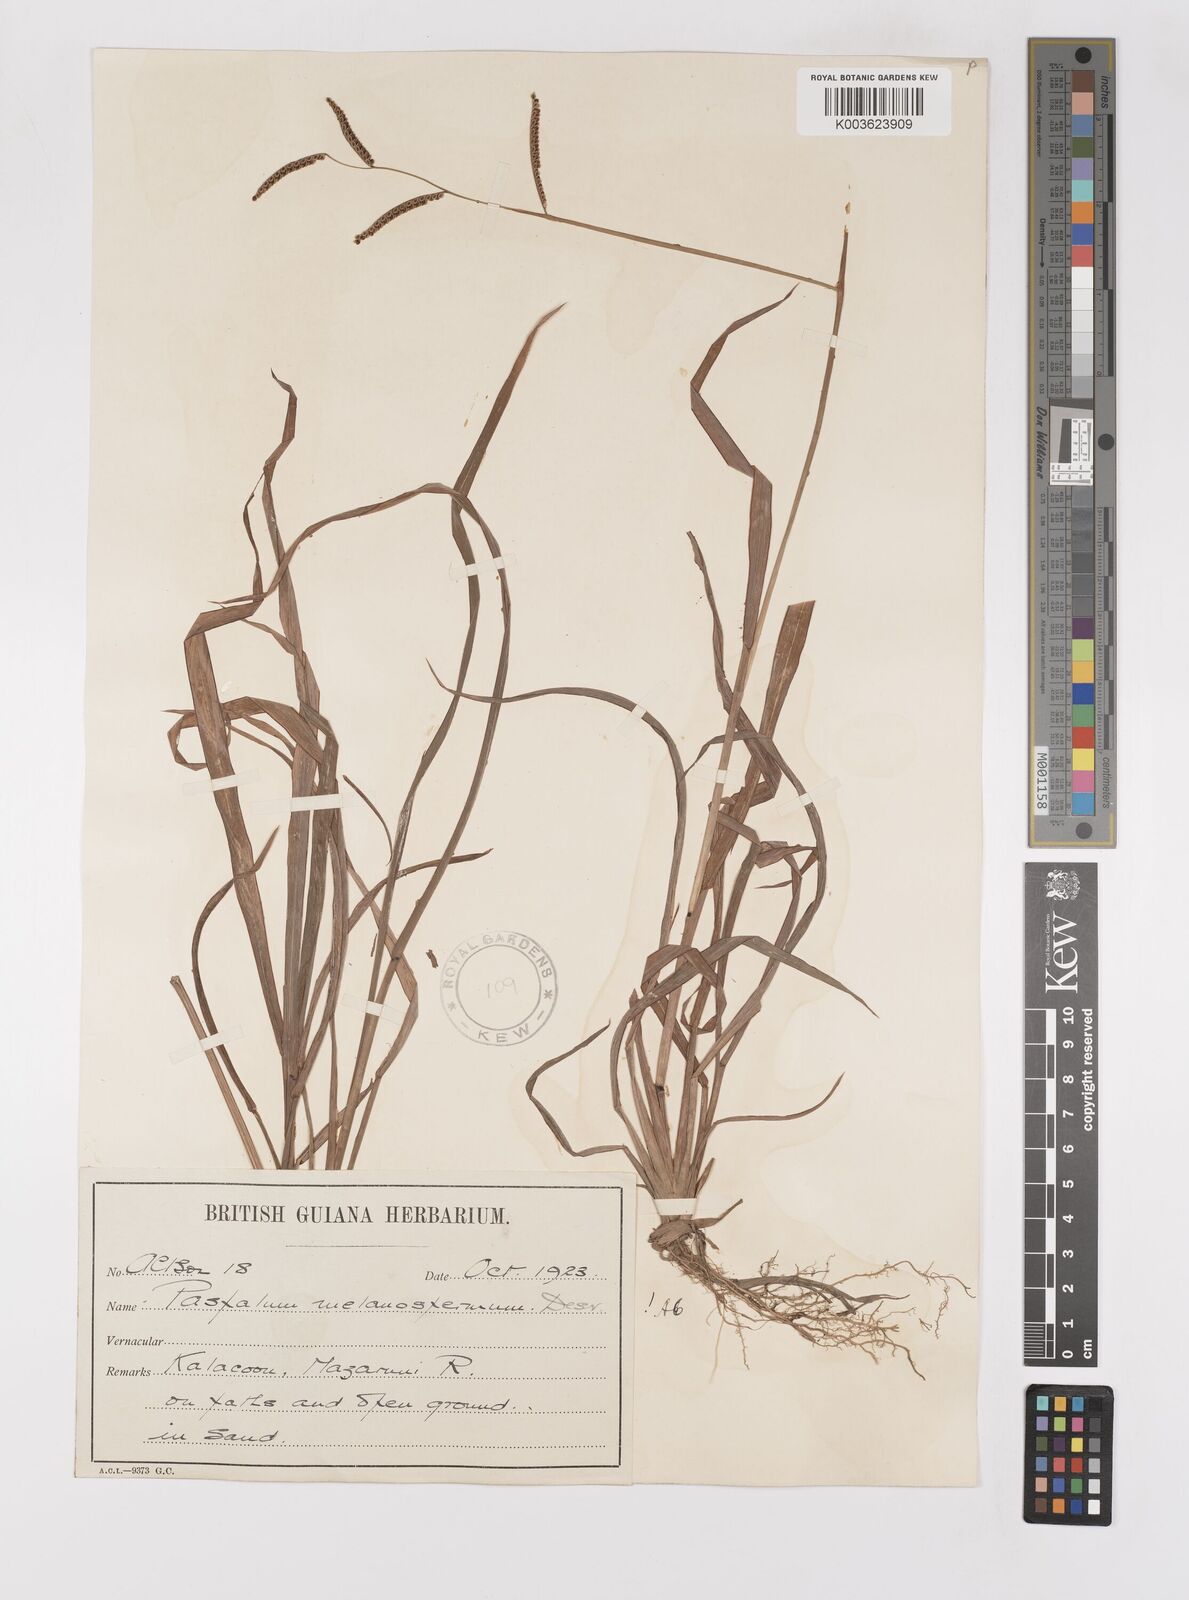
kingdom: Plantae
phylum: Tracheophyta
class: Liliopsida
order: Poales
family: Poaceae
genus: Paspalum
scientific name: Paspalum melanospermum
